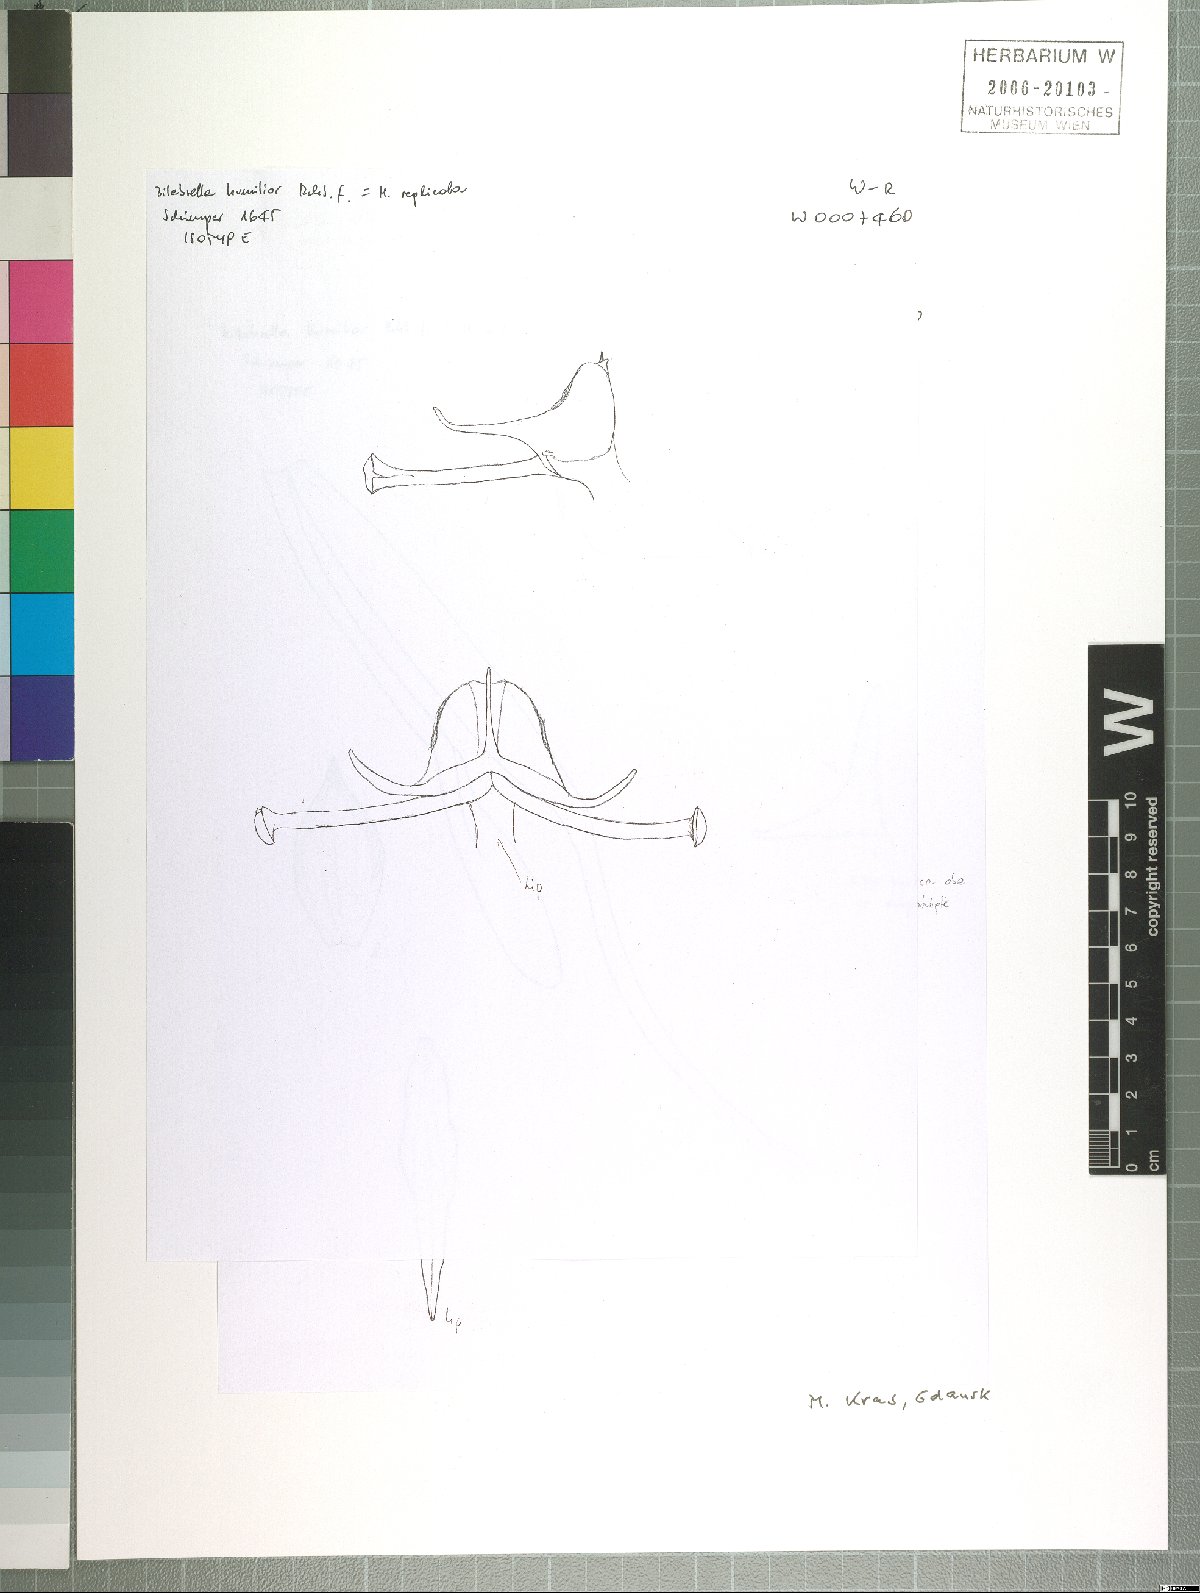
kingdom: Plantae
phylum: Tracheophyta
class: Liliopsida
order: Asparagales
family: Orchidaceae
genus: Platanthera
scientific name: Platanthera replicata
